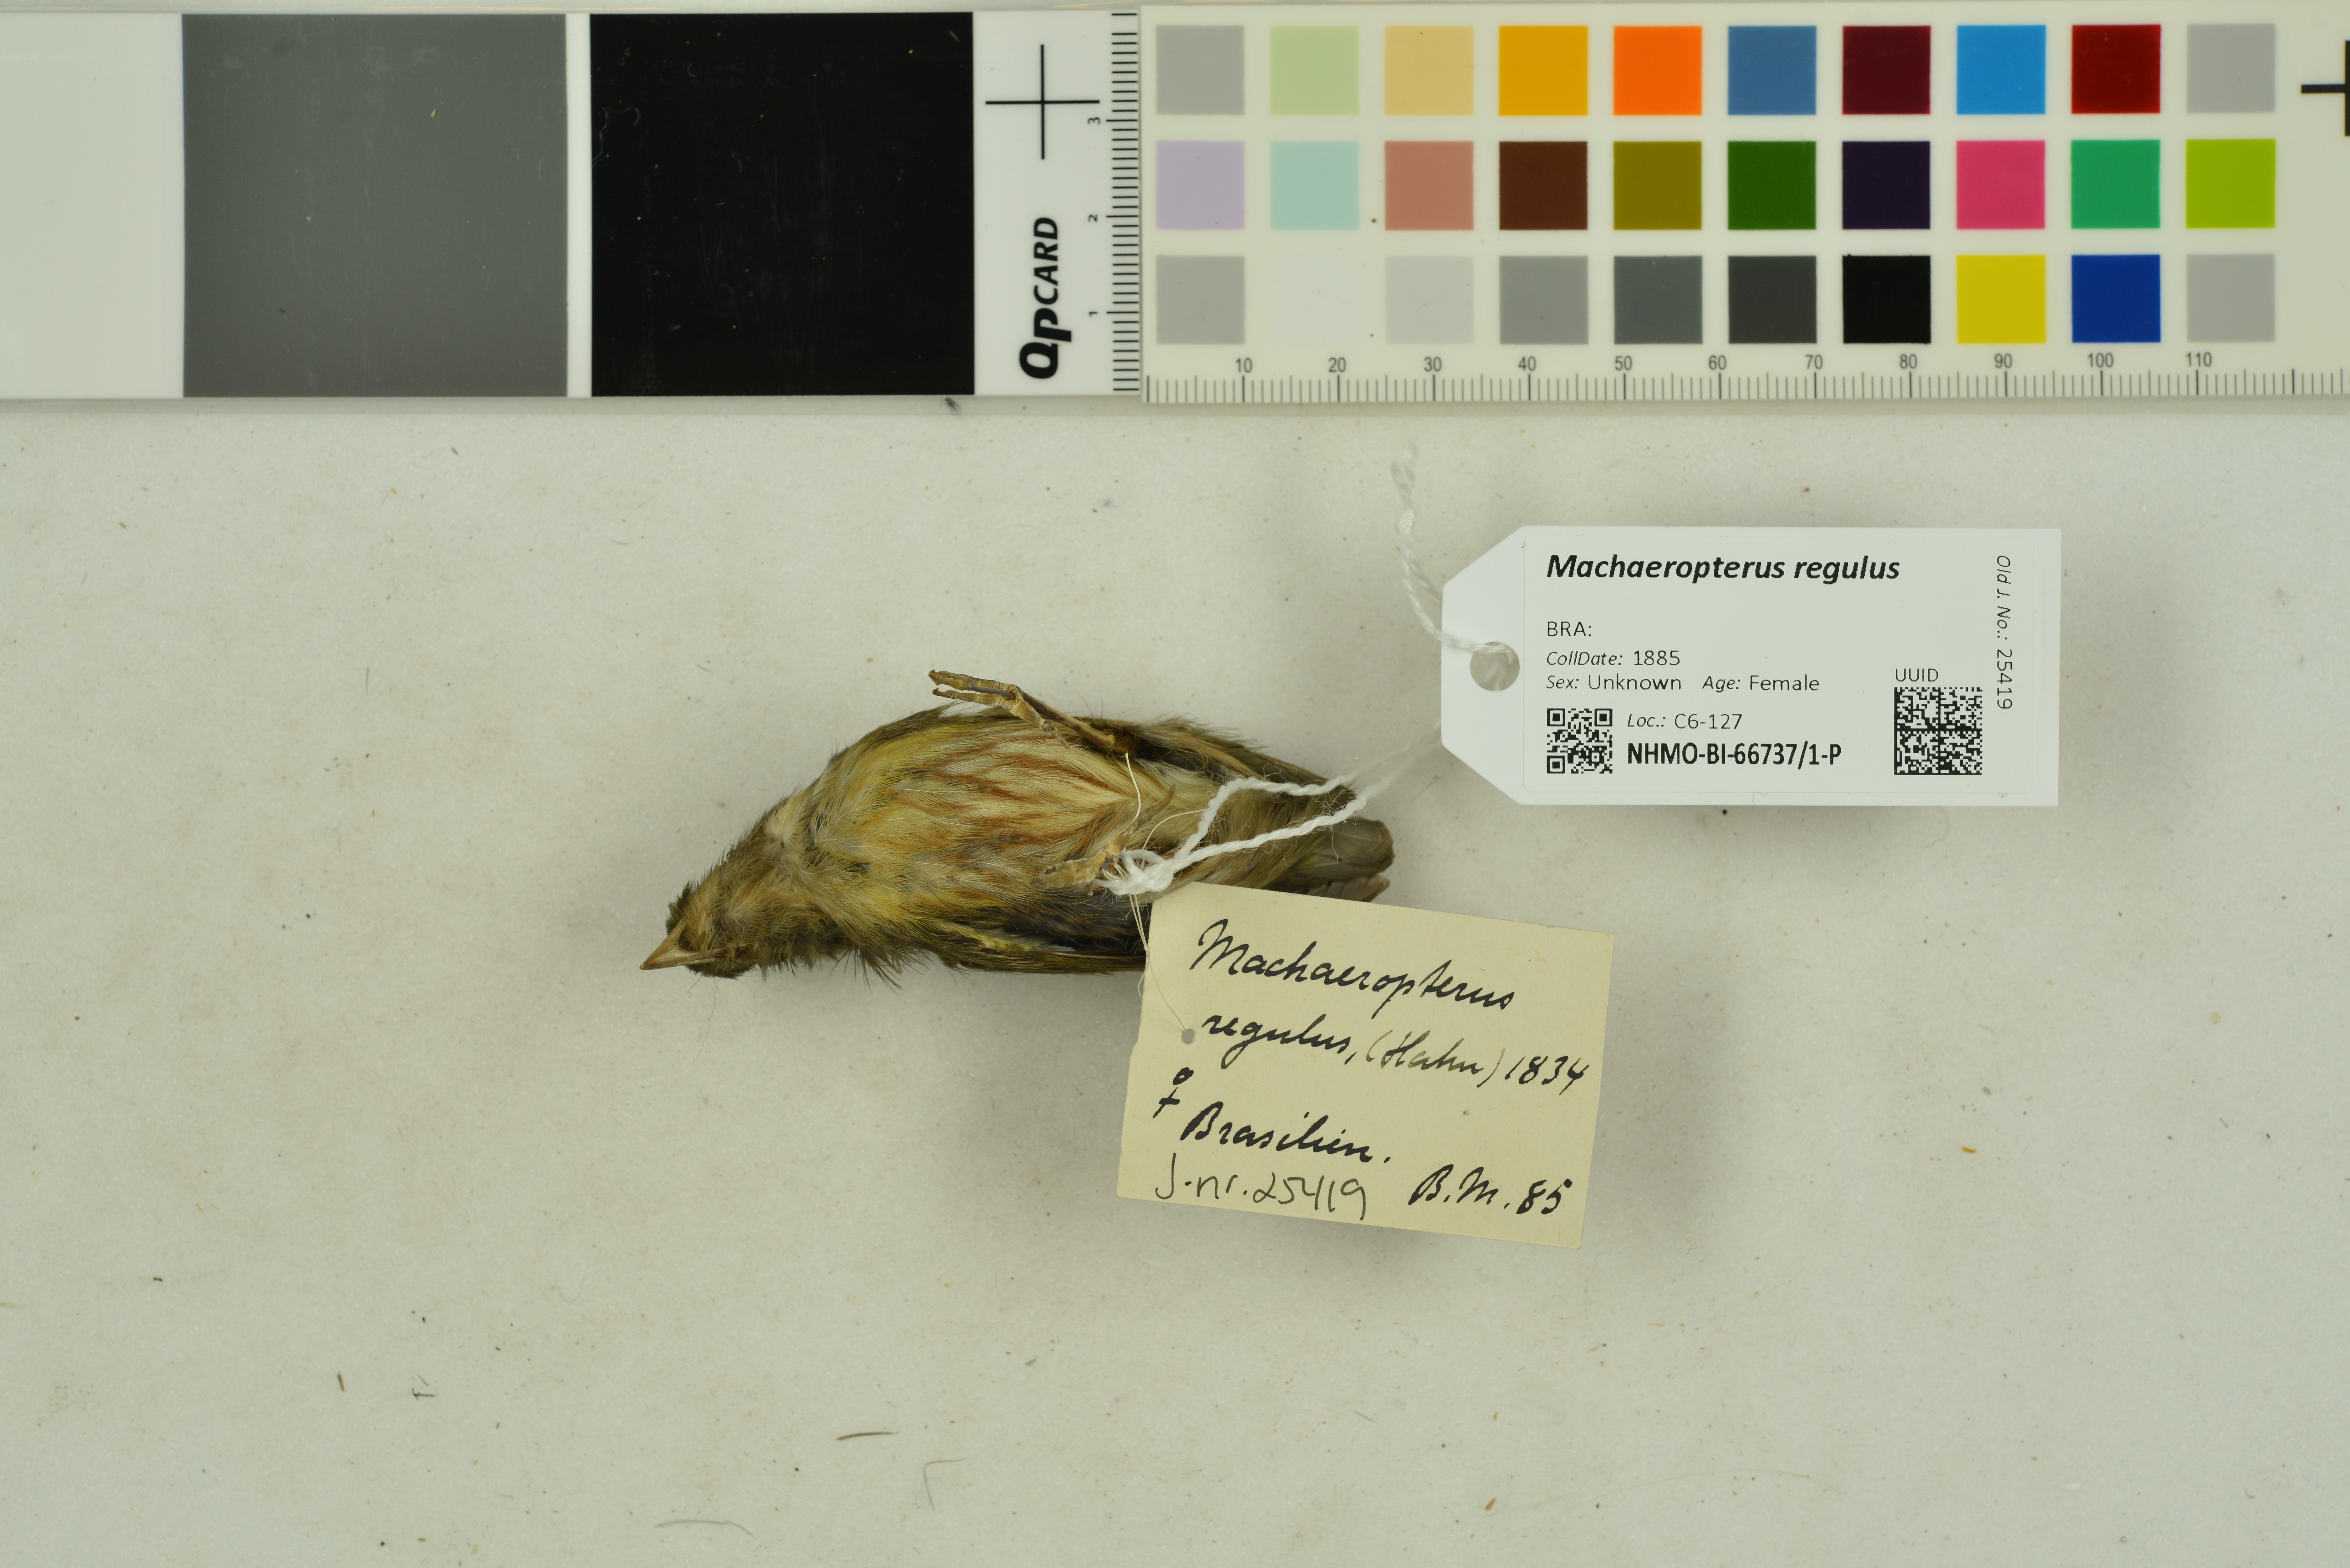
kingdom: Animalia
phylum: Chordata
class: Aves
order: Passeriformes
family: Pipridae
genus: Machaeropterus
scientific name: Machaeropterus regulus
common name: Eastern striped manakin
